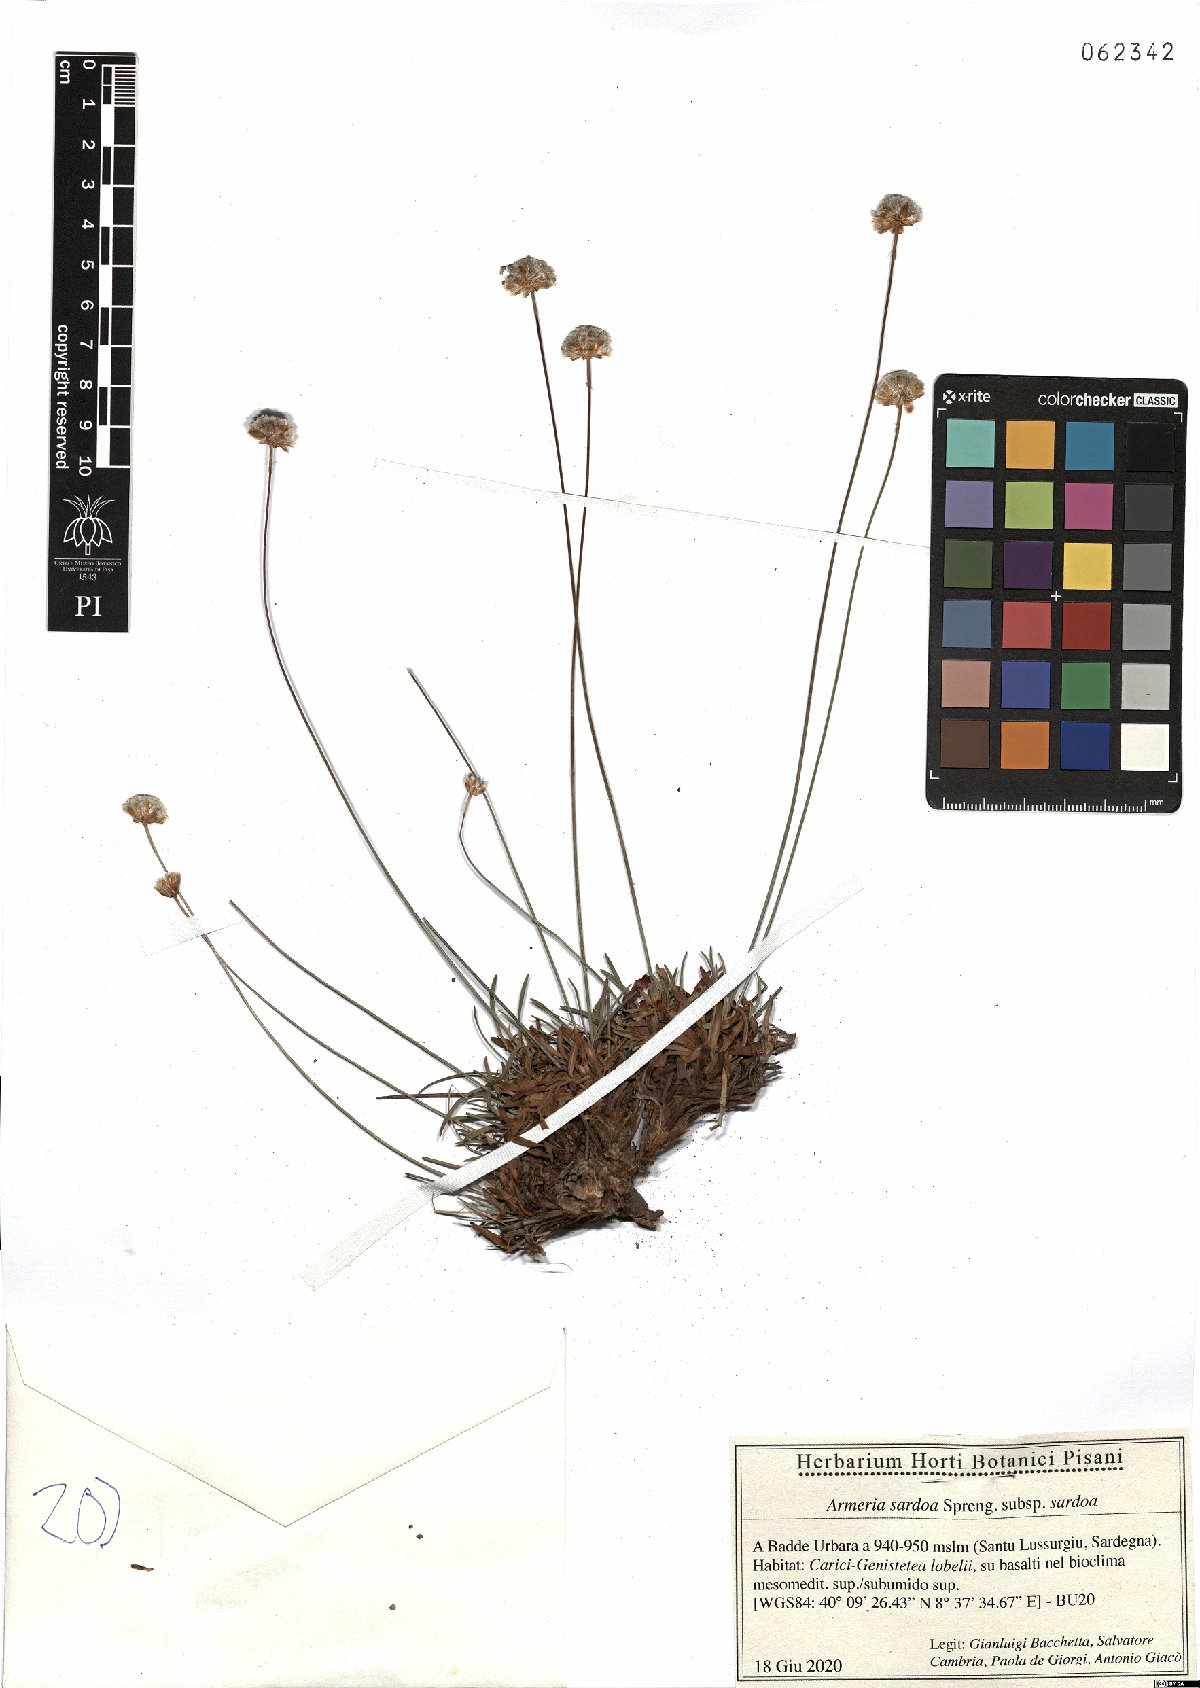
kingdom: Plantae
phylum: Tracheophyta
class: Magnoliopsida
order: Caryophyllales
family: Plumbaginaceae
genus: Armeria
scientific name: Armeria sardoa
